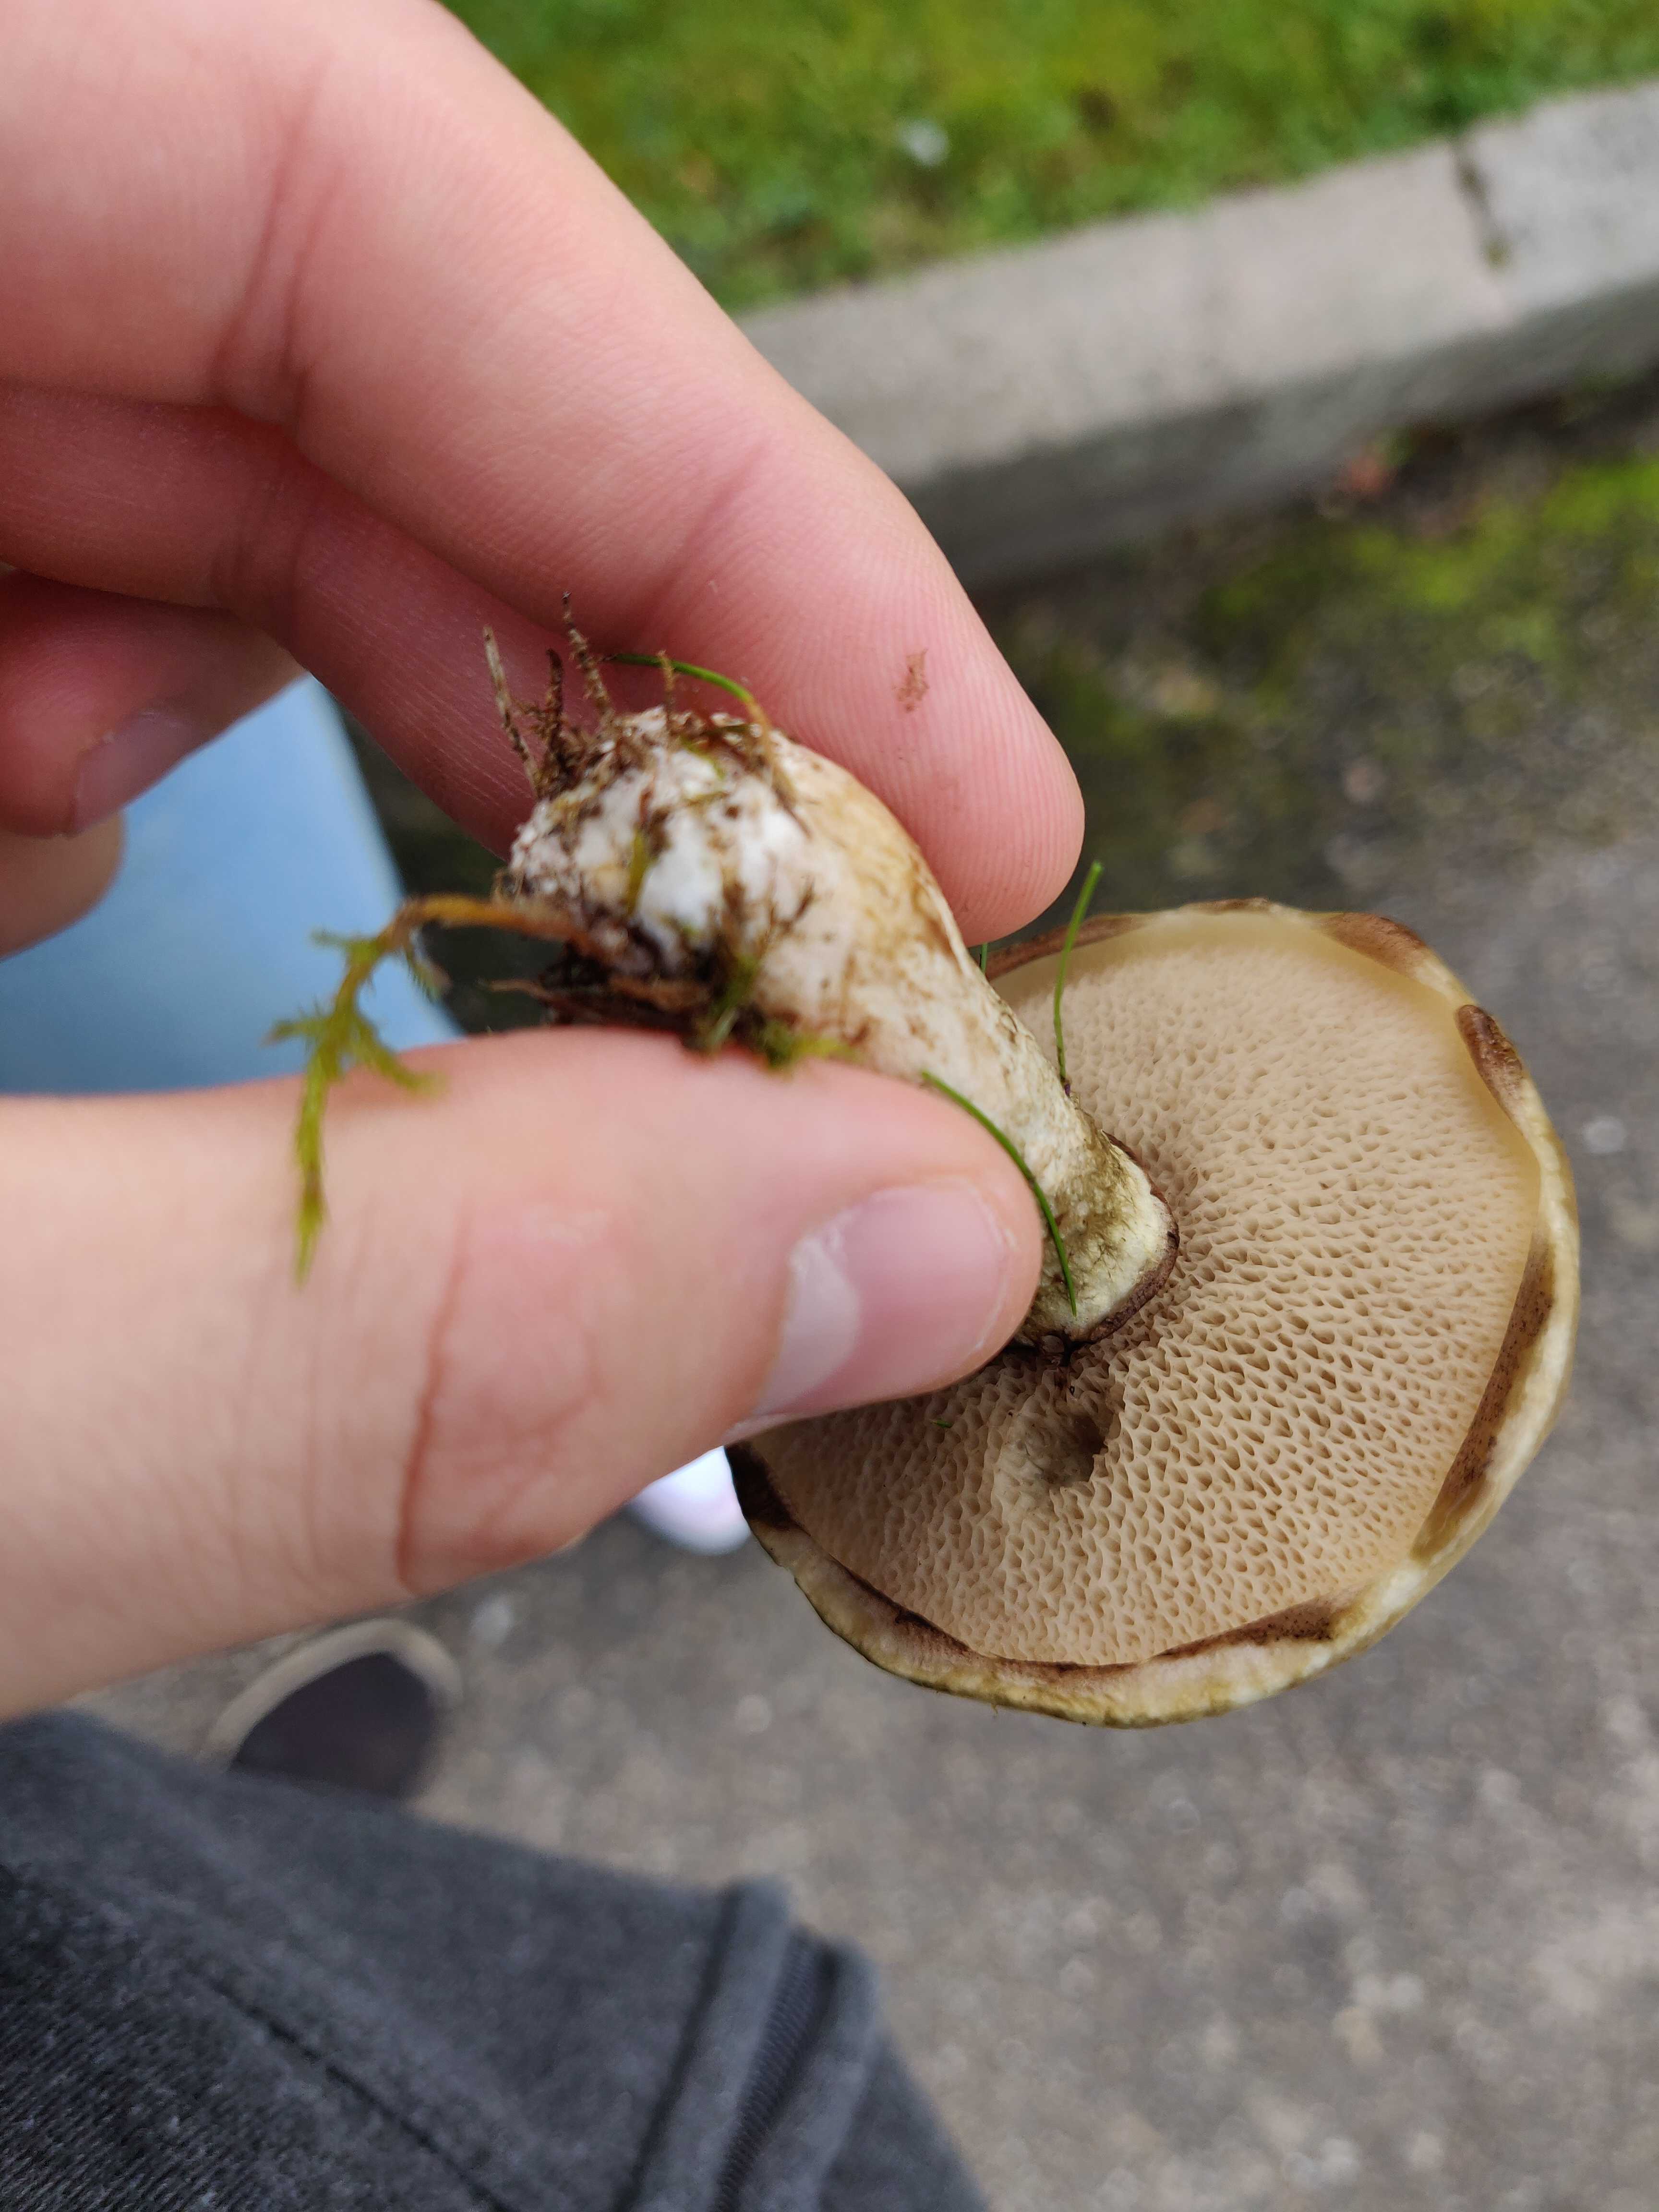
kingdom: Fungi
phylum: Basidiomycota
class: Agaricomycetes
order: Boletales
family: Suillaceae
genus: Suillus
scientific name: Suillus viscidus
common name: olivengrå slimrørhat
